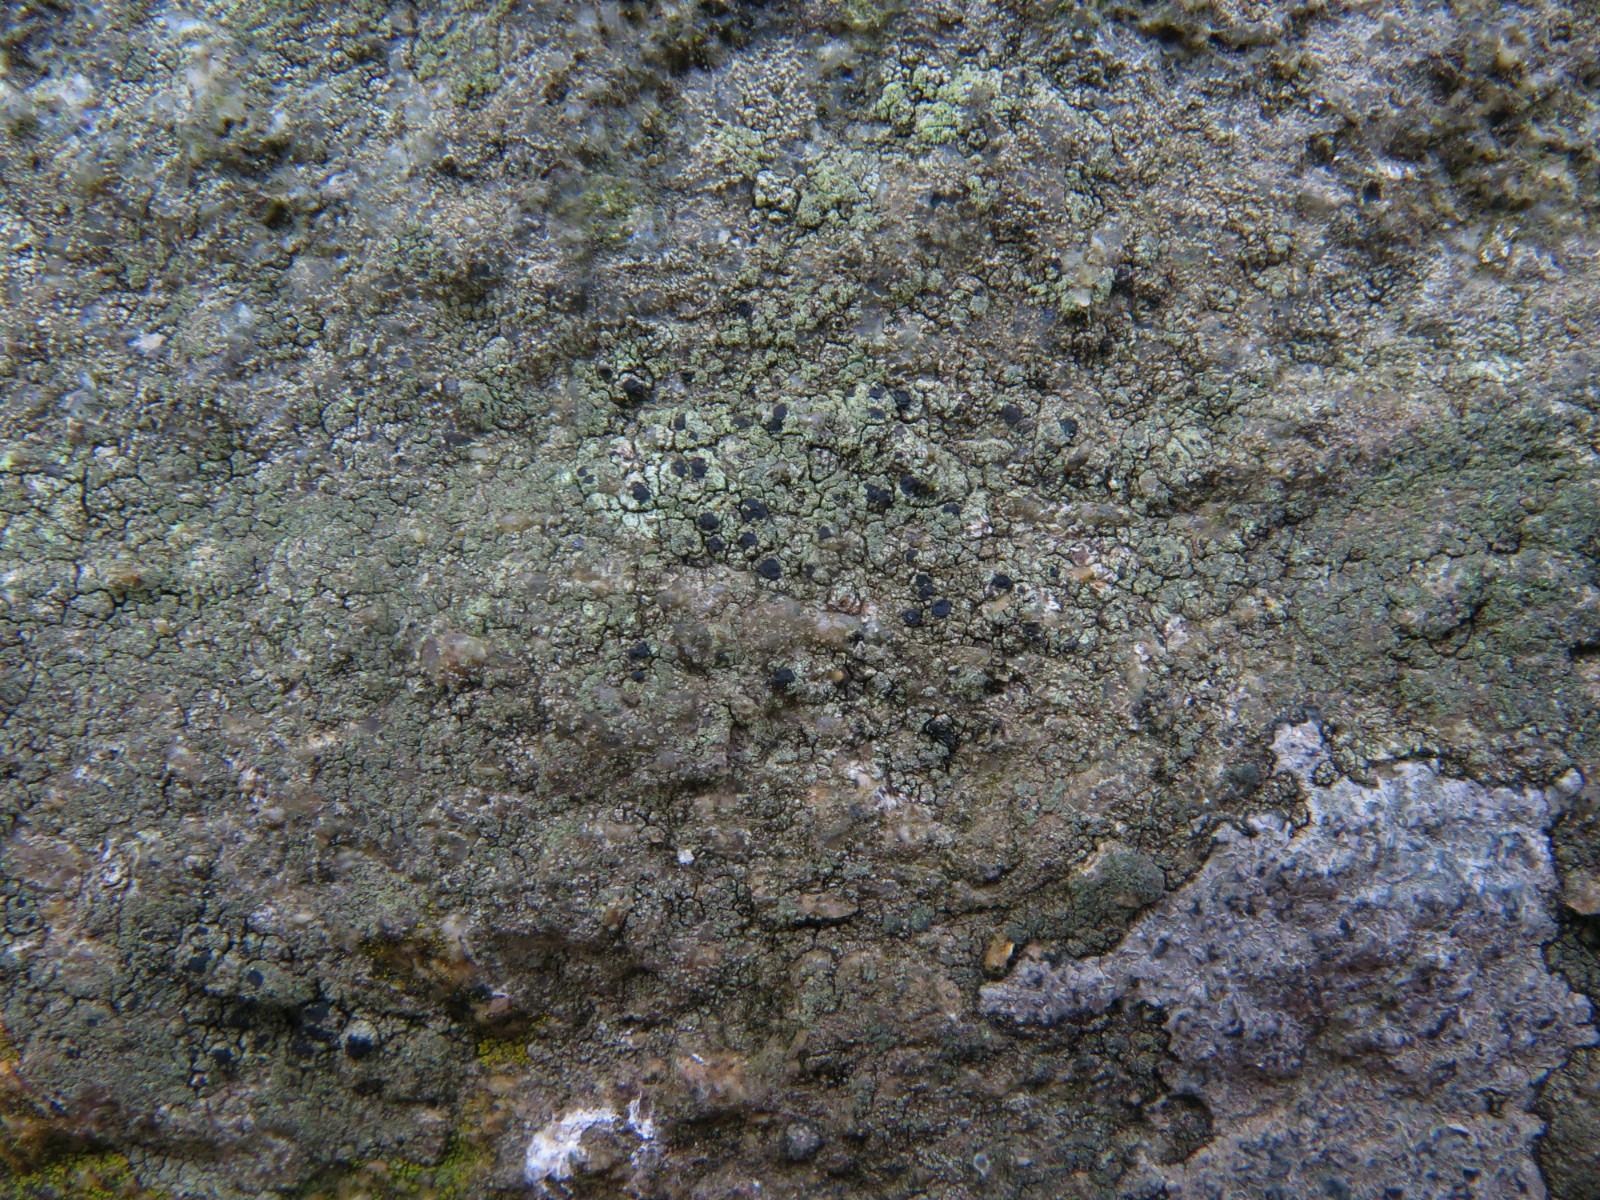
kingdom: Fungi
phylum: Ascomycota
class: Lecanoromycetes
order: Lecanorales
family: Lecanoraceae
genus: Lecidella
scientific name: Lecidella scabra
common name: skurvet skivelav
